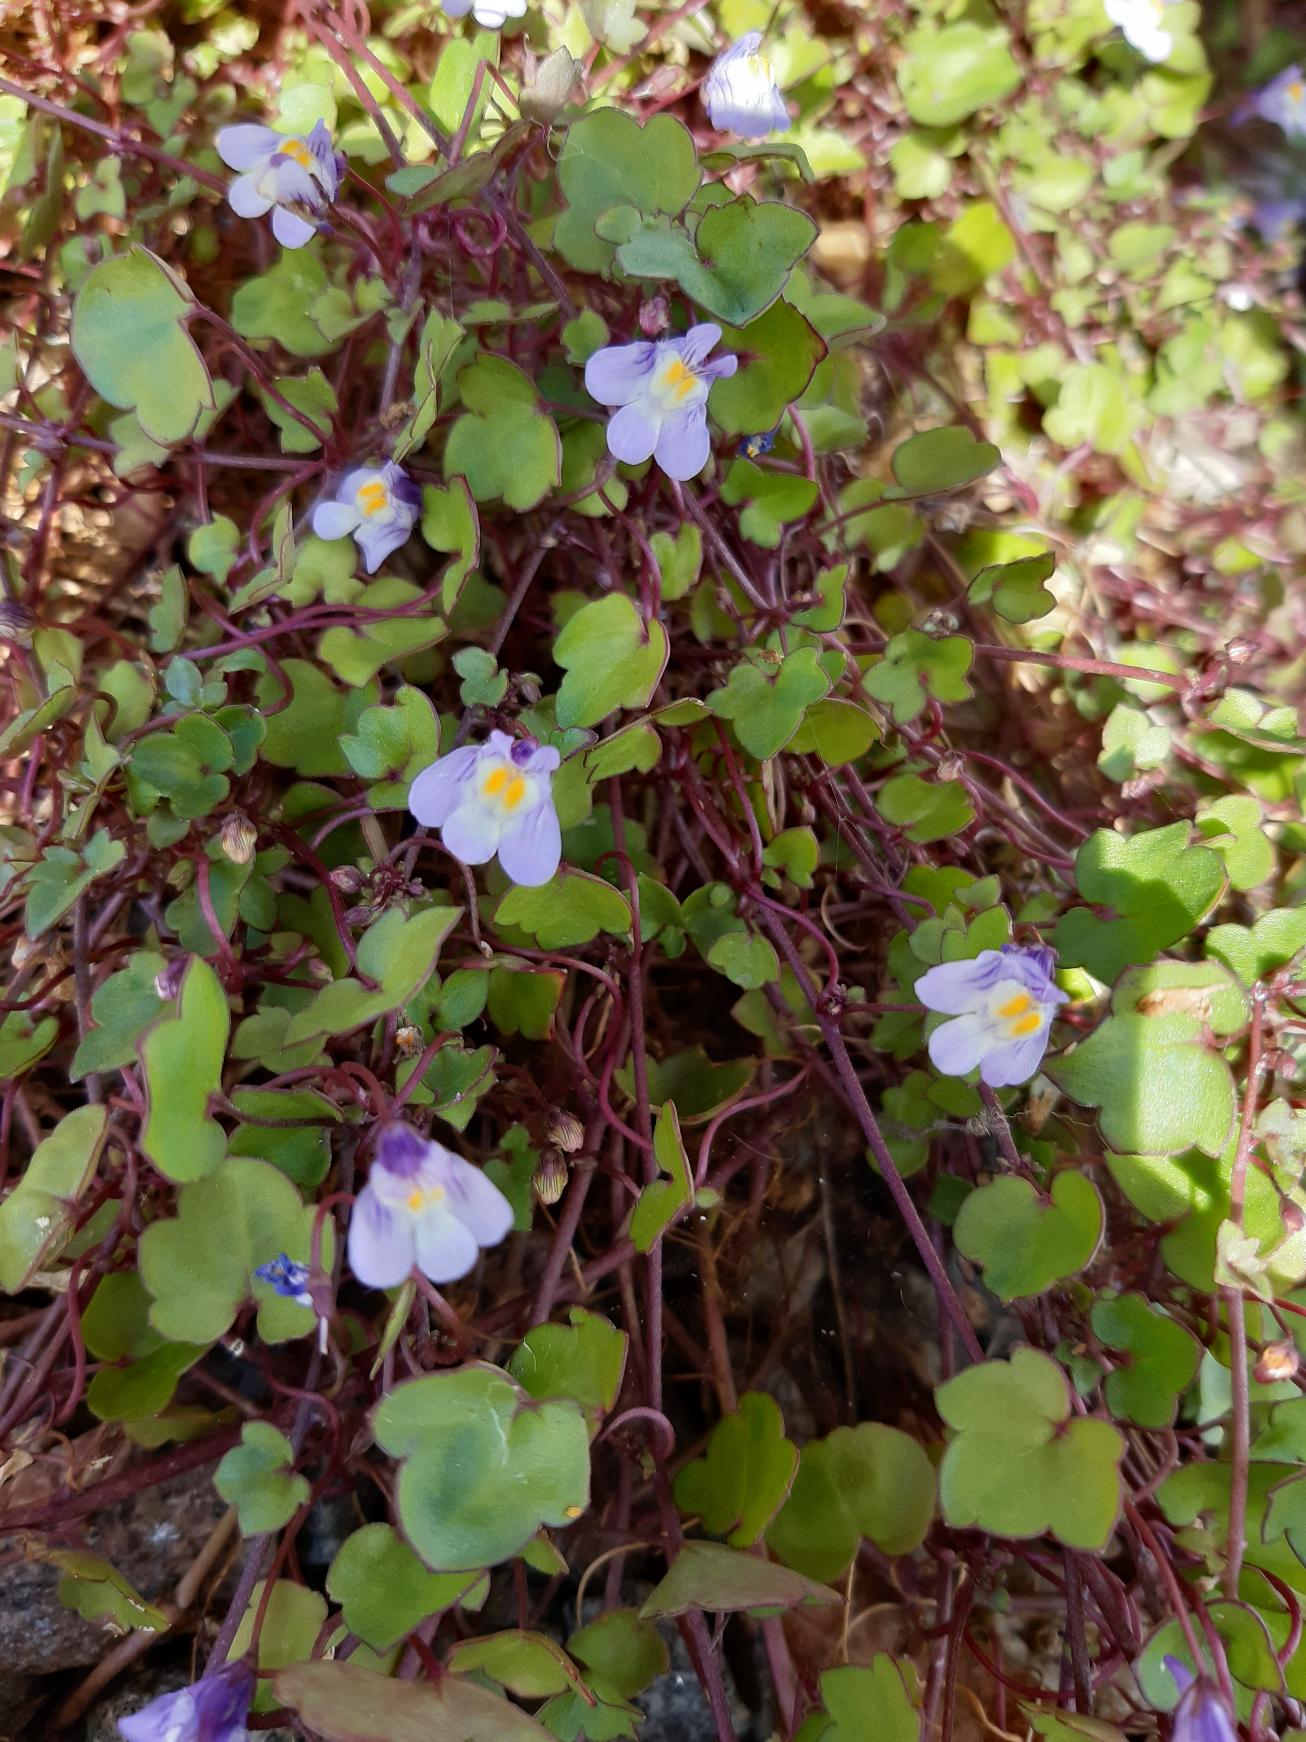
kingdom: Plantae
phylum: Tracheophyta
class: Magnoliopsida
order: Lamiales
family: Plantaginaceae
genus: Cymbalaria
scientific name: Cymbalaria muralis
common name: Vedbend-torskemund
